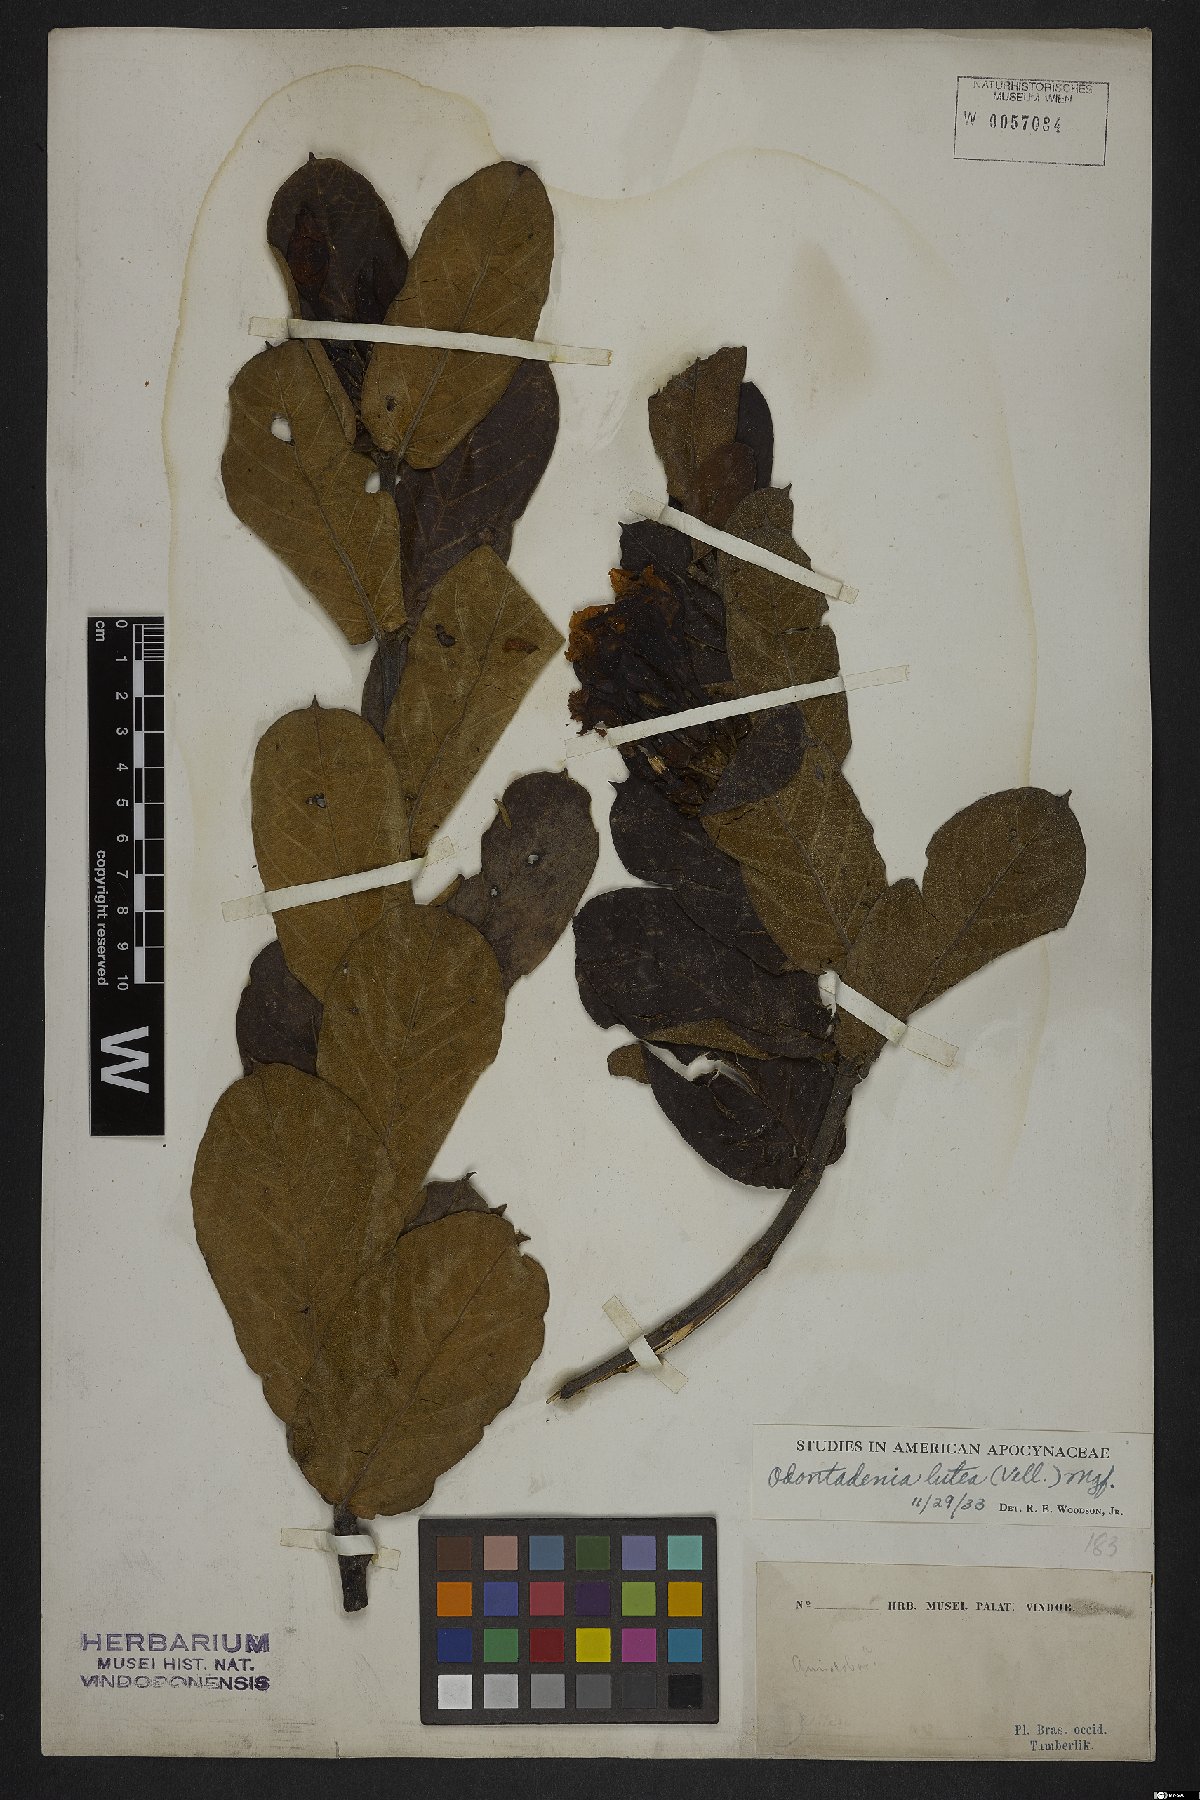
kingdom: Plantae
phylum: Tracheophyta
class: Magnoliopsida
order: Gentianales
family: Apocynaceae
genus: Odontadenia
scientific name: Odontadenia lutea
